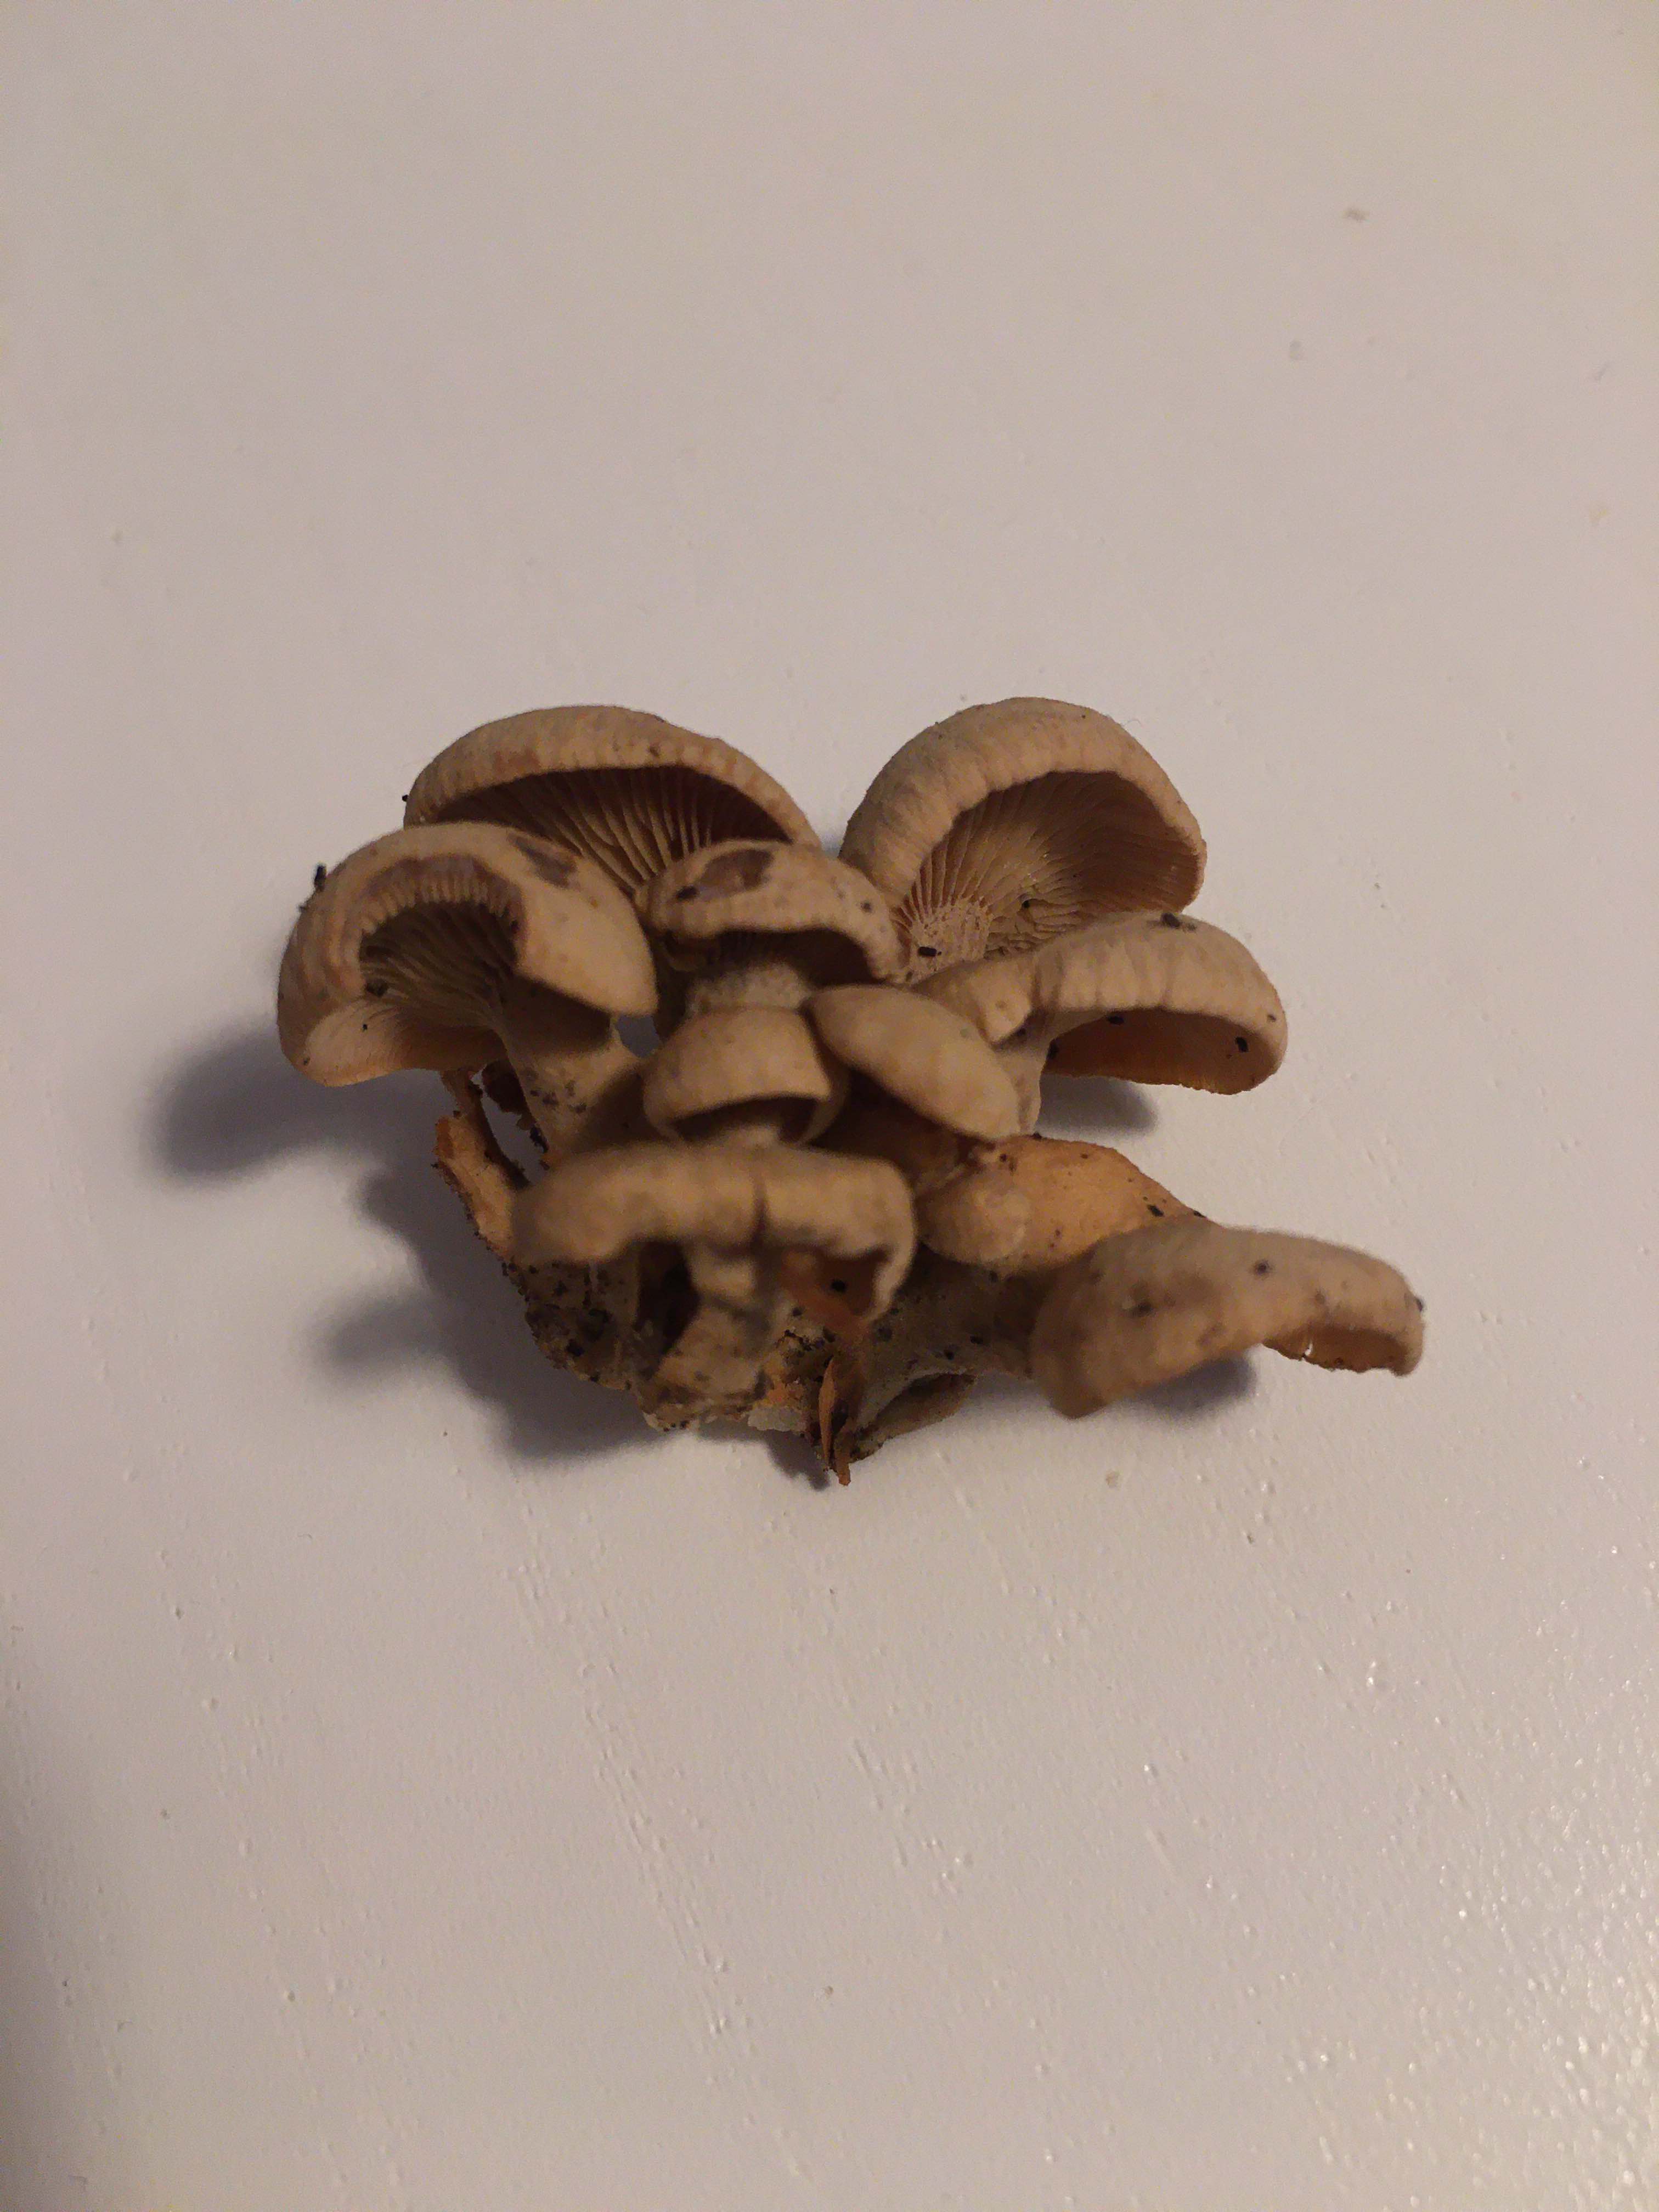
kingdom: Fungi
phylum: Basidiomycota
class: Agaricomycetes
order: Agaricales
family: Mycenaceae
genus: Panellus
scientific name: Panellus stipticus
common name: kliddet epaulethat
